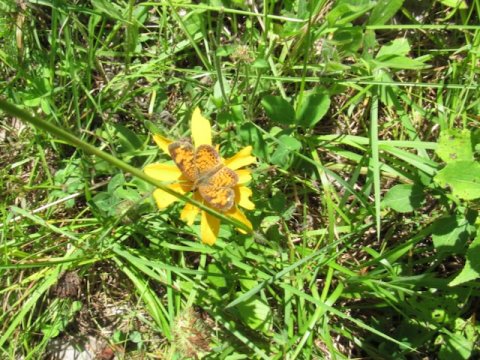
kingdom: Animalia
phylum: Arthropoda
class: Insecta
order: Lepidoptera
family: Nymphalidae
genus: Phyciodes
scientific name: Phyciodes tharos
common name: Pearl Crescent
